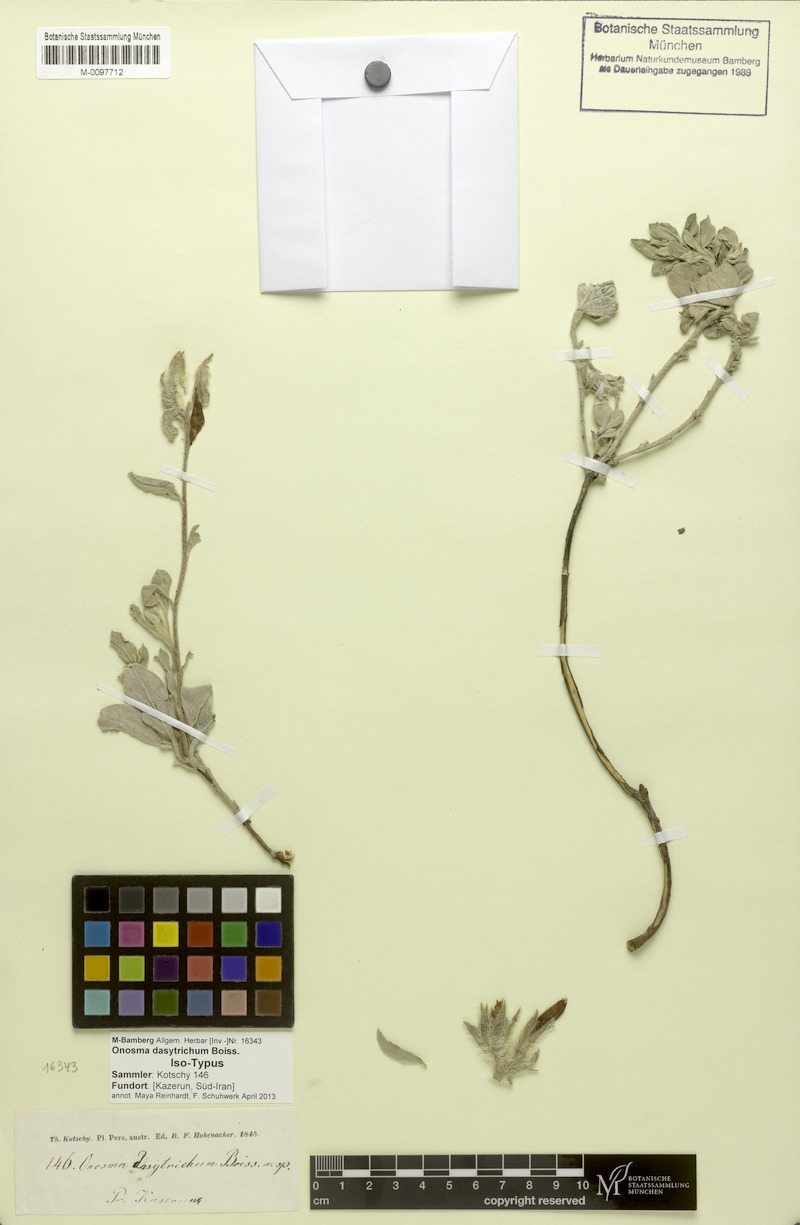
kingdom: Plantae
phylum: Tracheophyta
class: Magnoliopsida
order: Boraginales
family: Boraginaceae
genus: Onosma
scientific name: Onosma dasytricha
